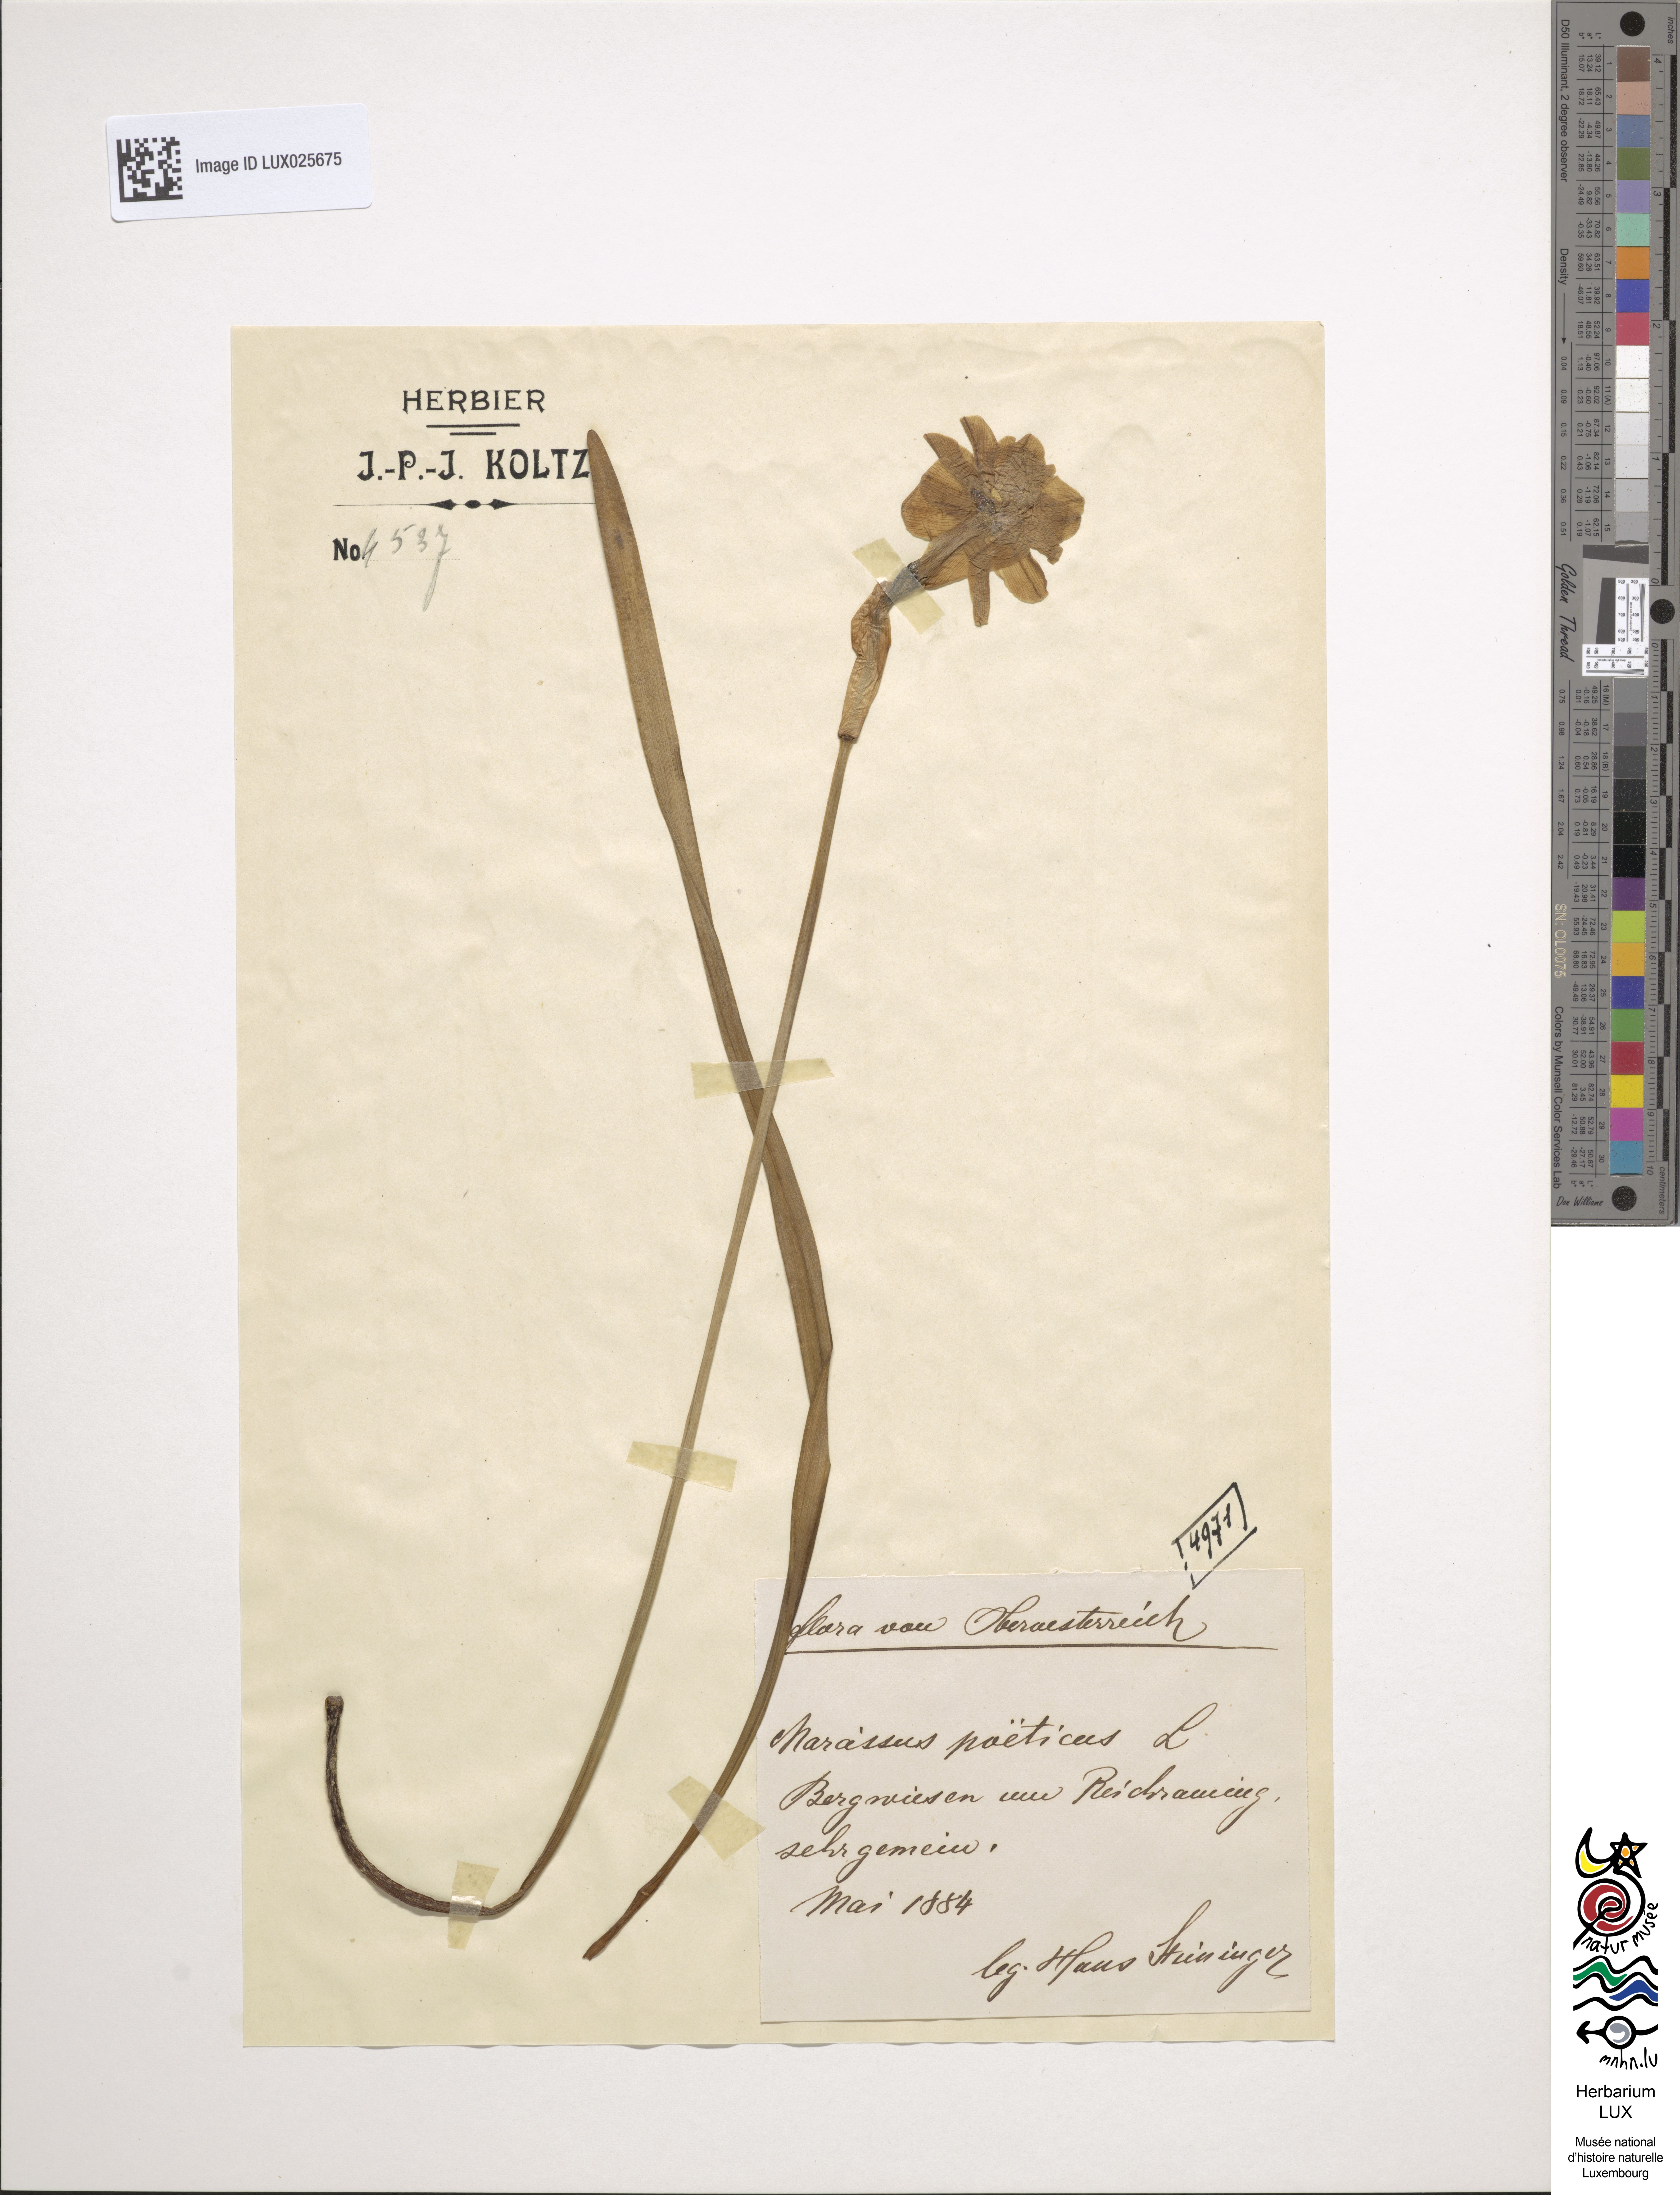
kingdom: Plantae
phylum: Tracheophyta
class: Liliopsida
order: Asparagales
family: Amaryllidaceae
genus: Narcissus
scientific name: Narcissus poeticus
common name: Pheasant's-eye daffodil
